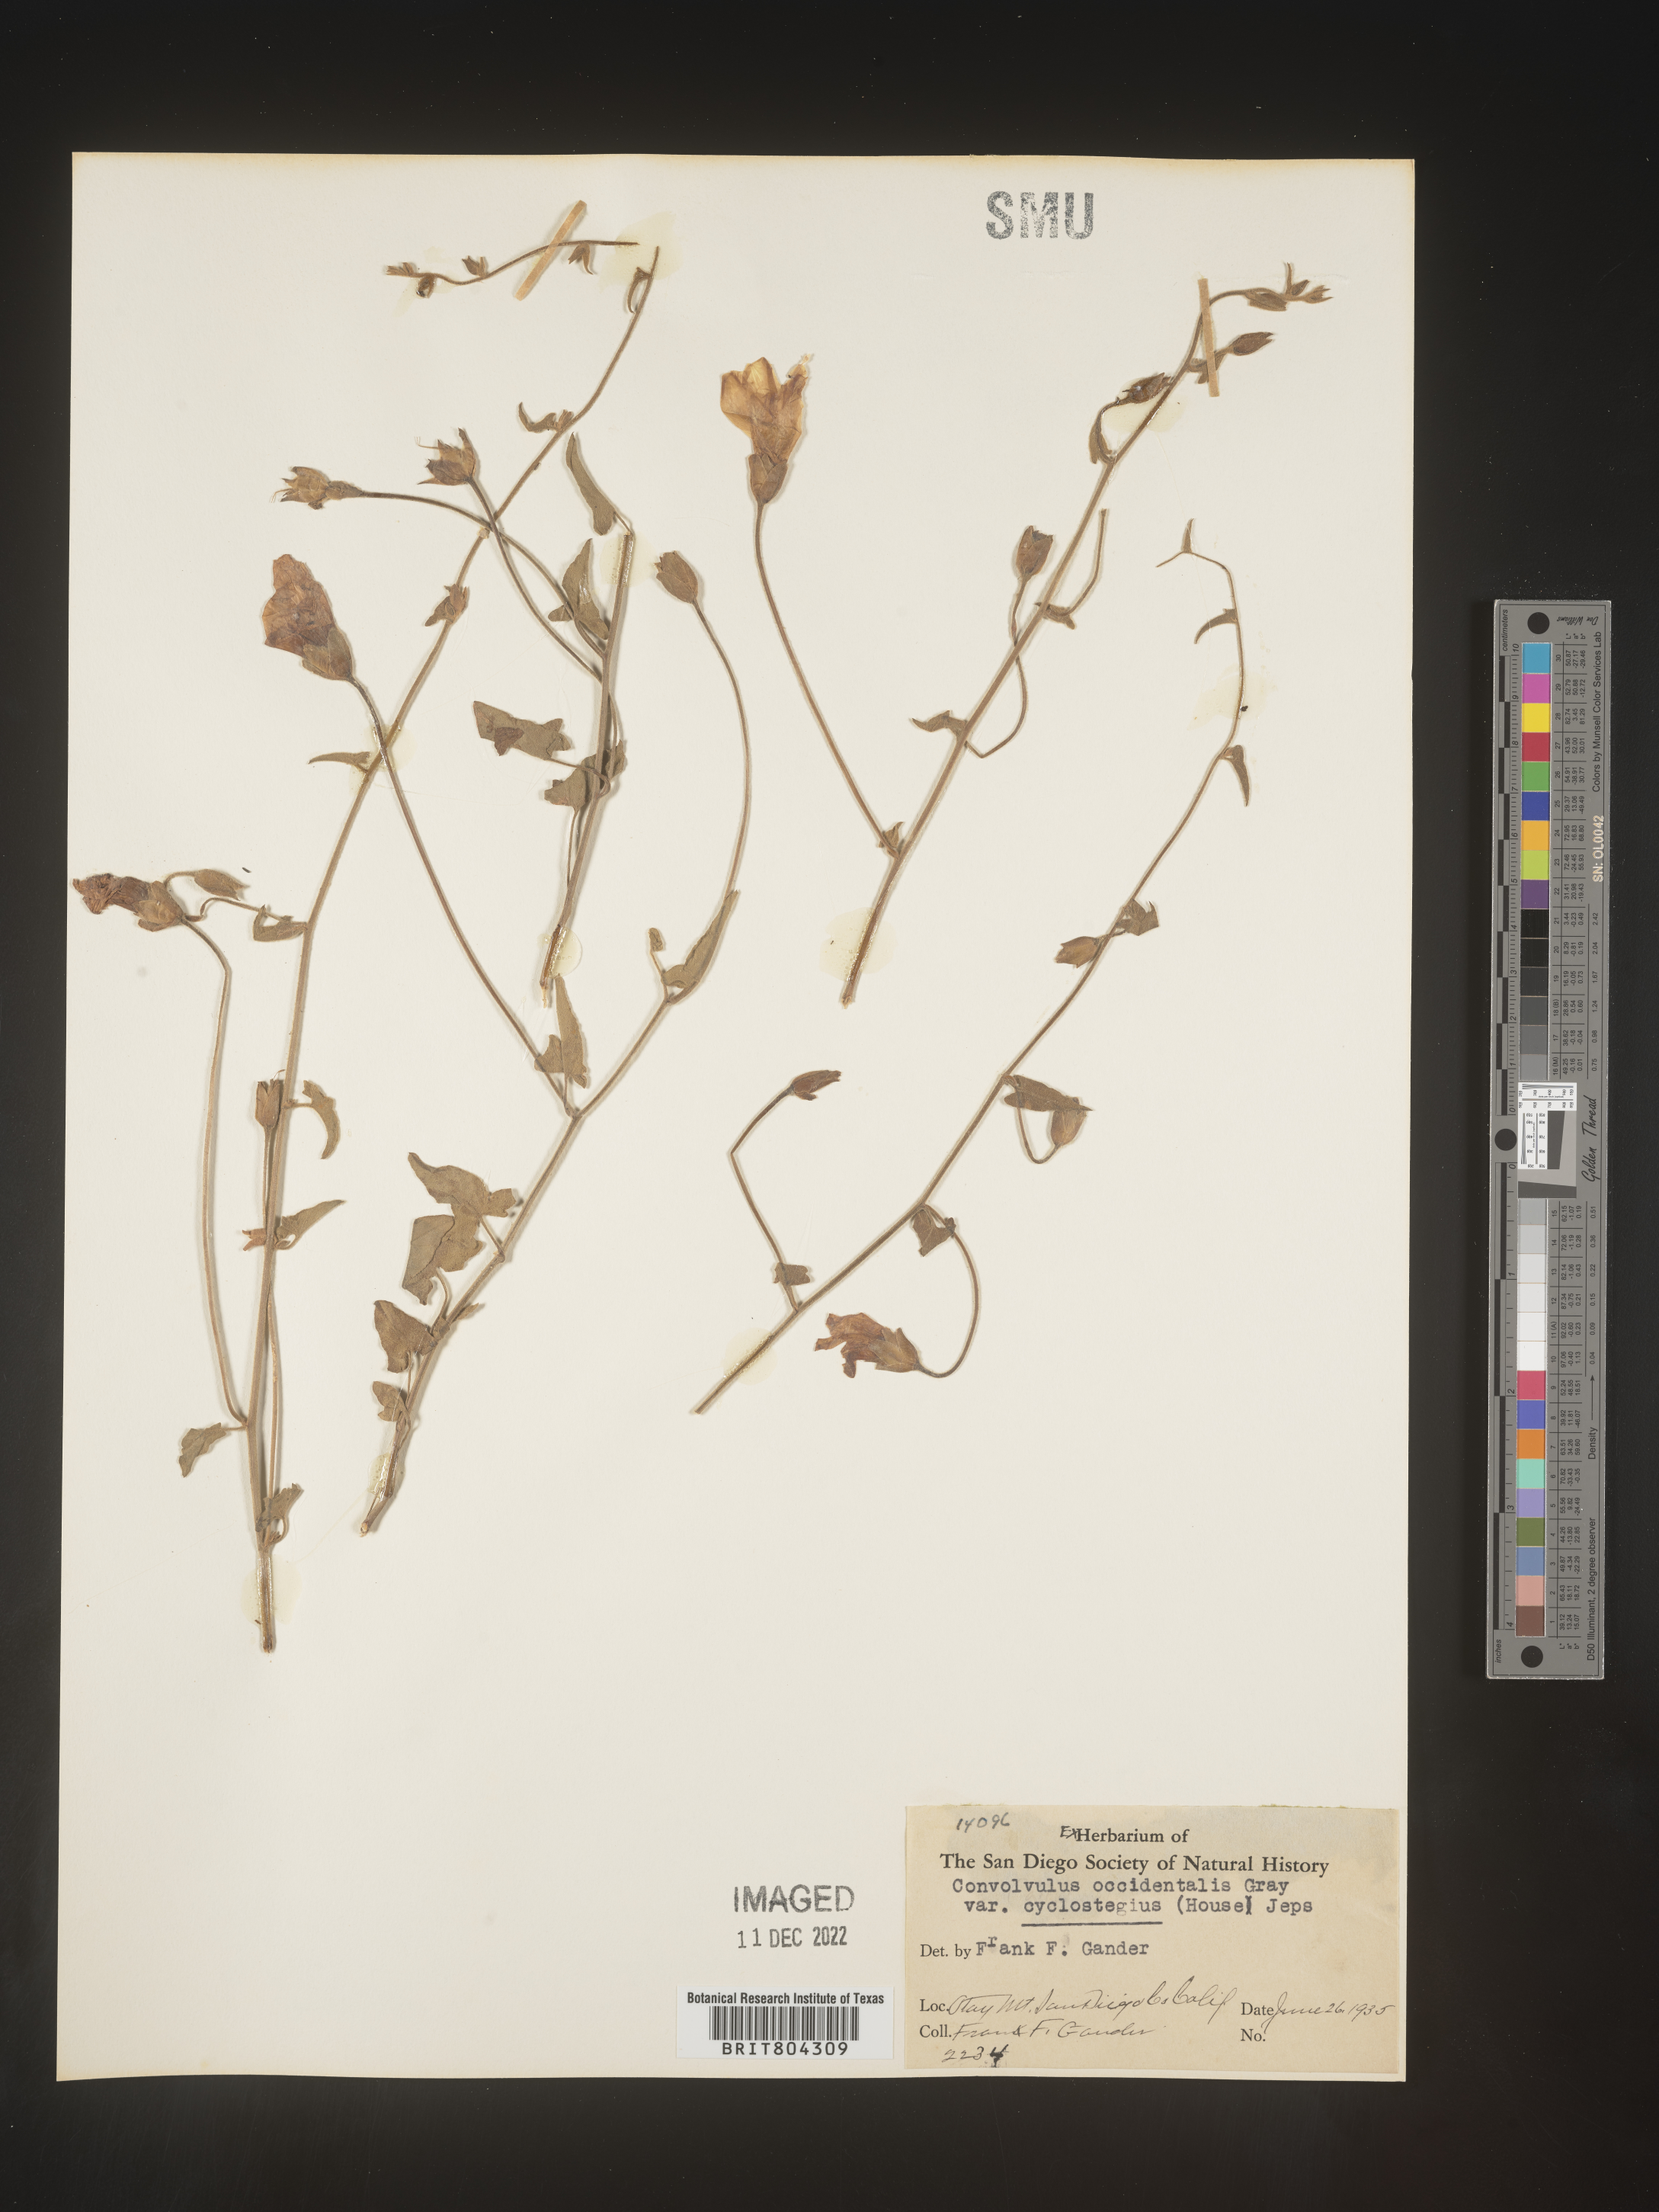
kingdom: Plantae
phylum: Tracheophyta
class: Magnoliopsida
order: Solanales
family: Convolvulaceae
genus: Calystegia
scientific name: Calystegia
